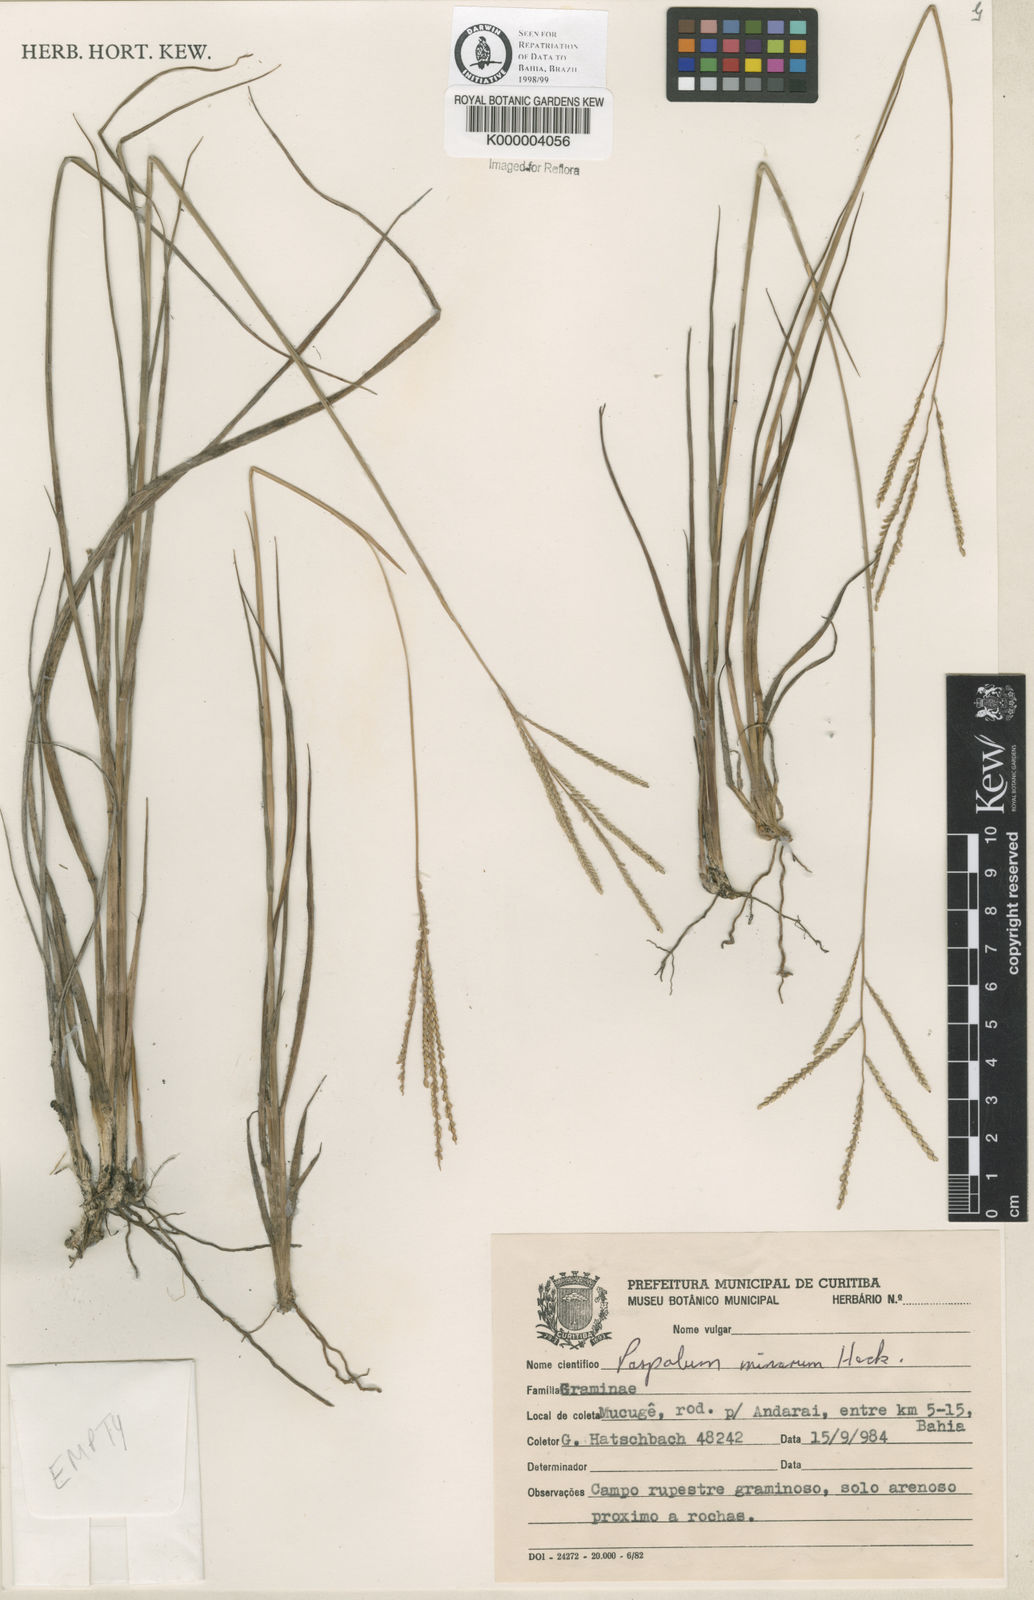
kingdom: Plantae
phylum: Tracheophyta
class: Liliopsida
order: Poales
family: Poaceae
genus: Paspalum
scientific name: Paspalum minarum
